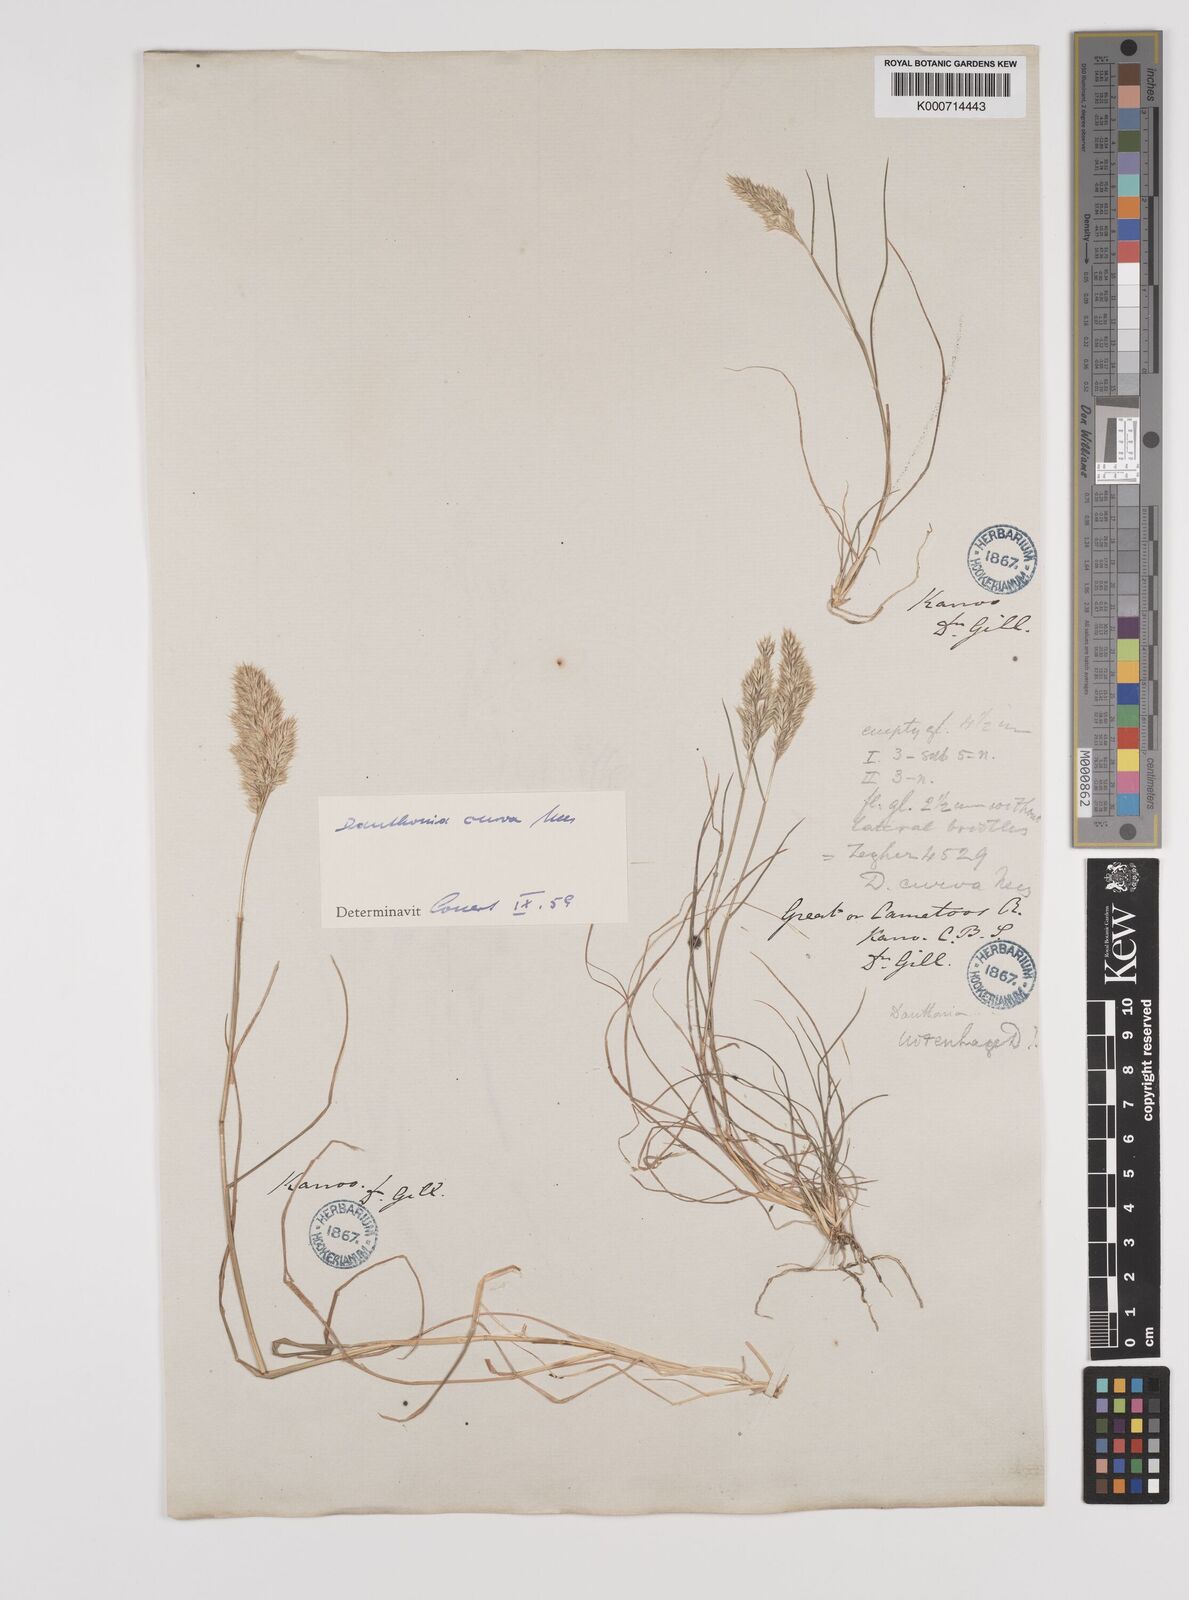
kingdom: Plantae
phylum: Tracheophyta
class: Liliopsida
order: Poales
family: Poaceae
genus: Rytidosperma
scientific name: Rytidosperma
